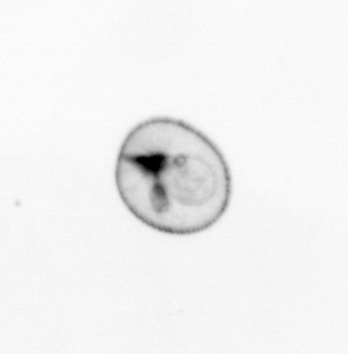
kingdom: Chromista
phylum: Myzozoa
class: Dinophyceae
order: Noctilucales
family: Noctilucaceae
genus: Noctiluca
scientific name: Noctiluca scintillans
